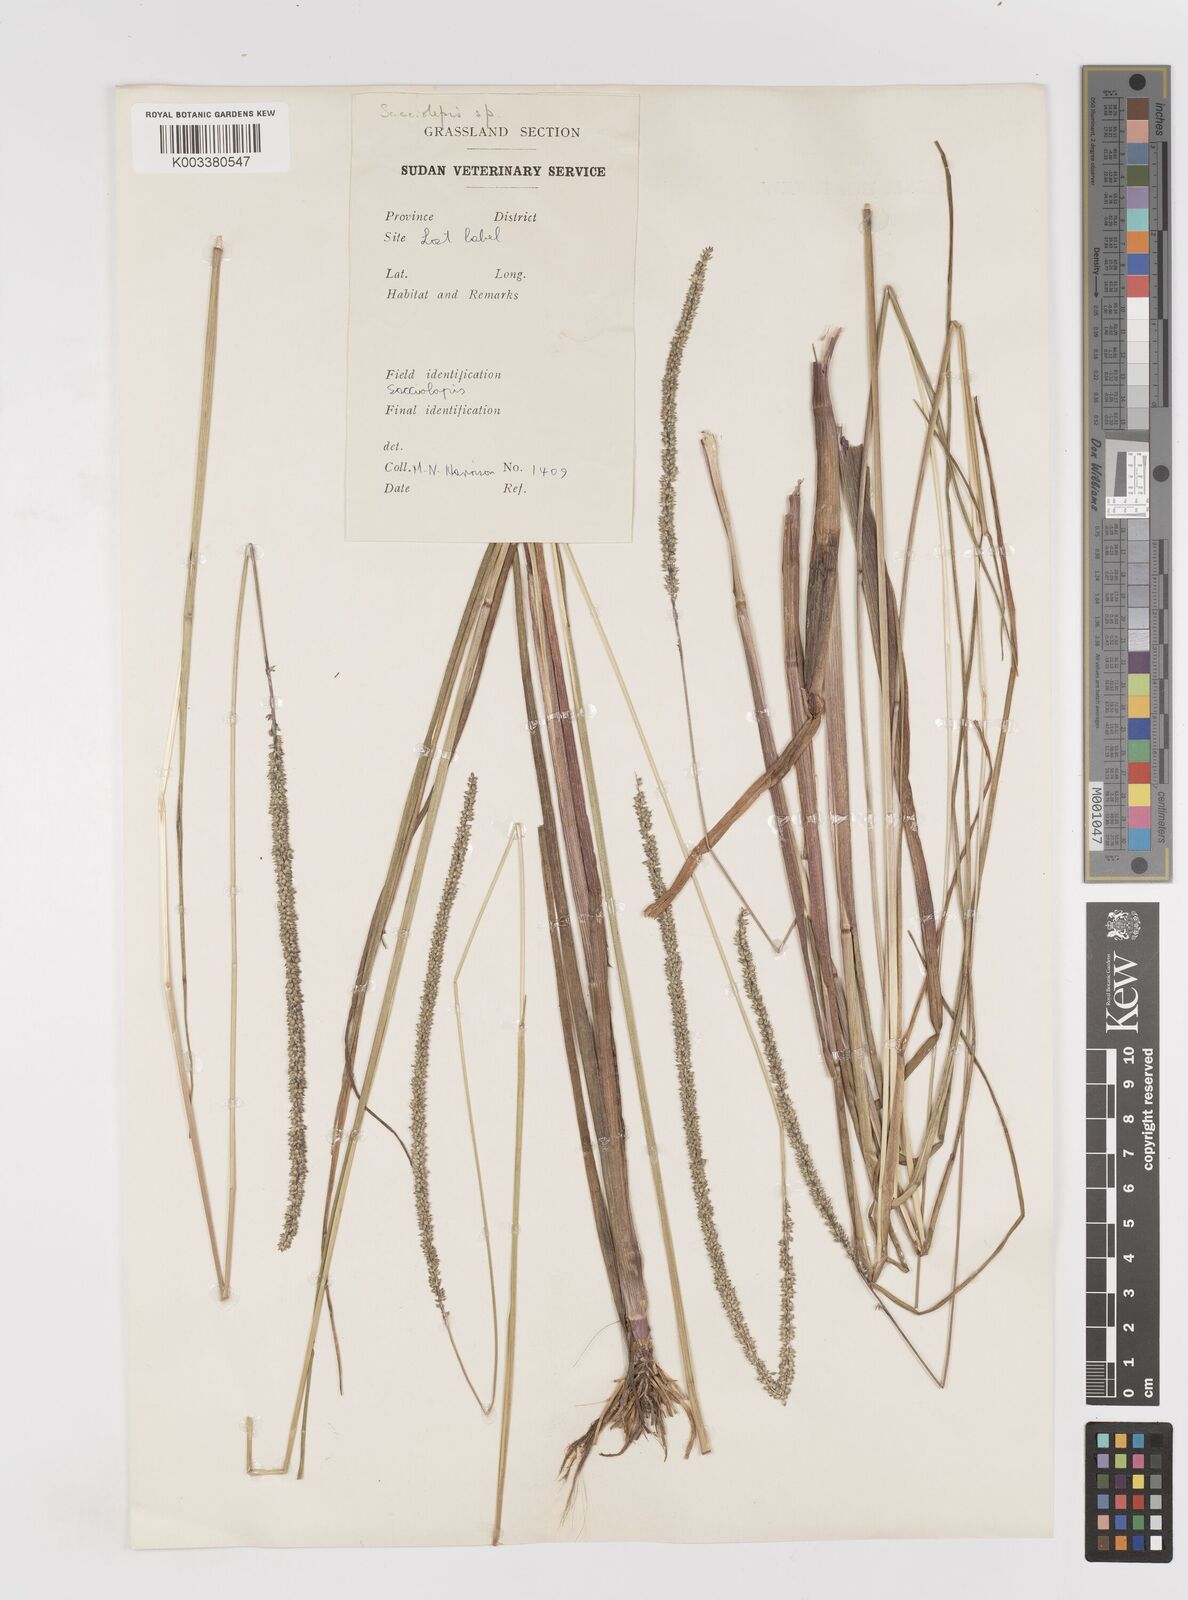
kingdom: Plantae
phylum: Tracheophyta
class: Liliopsida
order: Poales
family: Poaceae
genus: Sacciolepis
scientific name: Sacciolepis typhura
